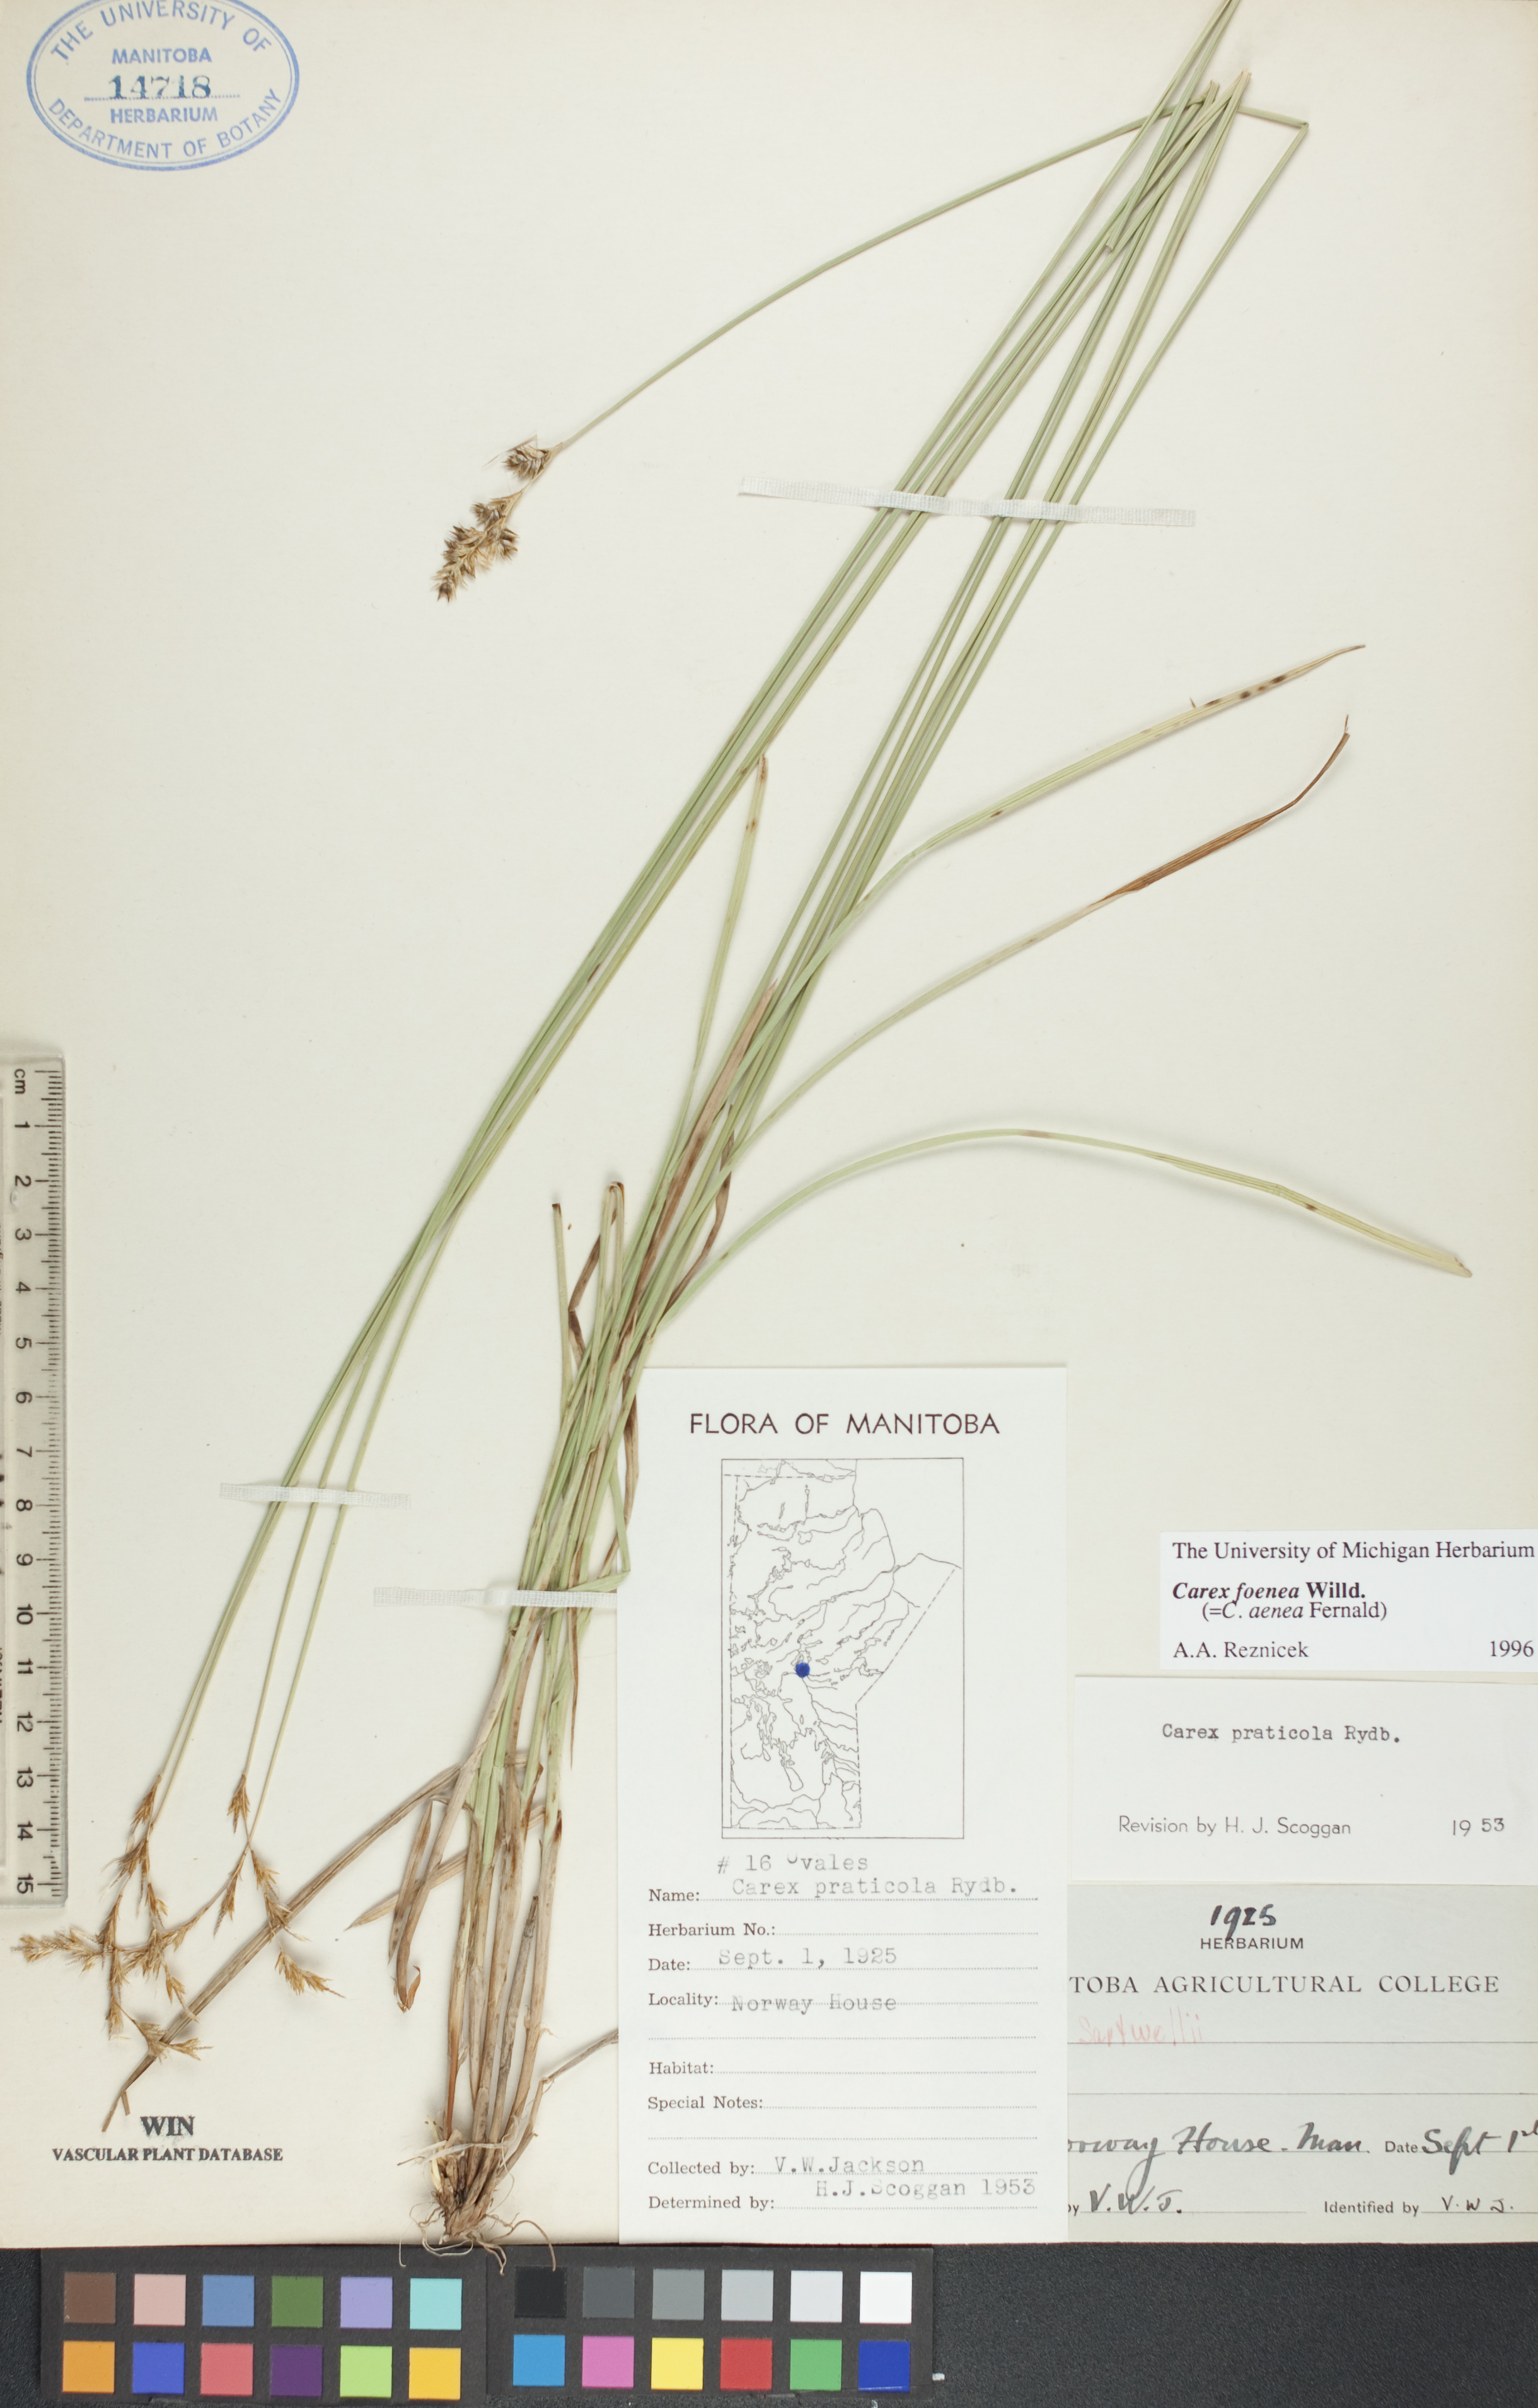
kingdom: Plantae
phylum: Tracheophyta
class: Liliopsida
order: Poales
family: Cyperaceae
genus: Carex
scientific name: Carex foenea
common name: Bronze sedge
